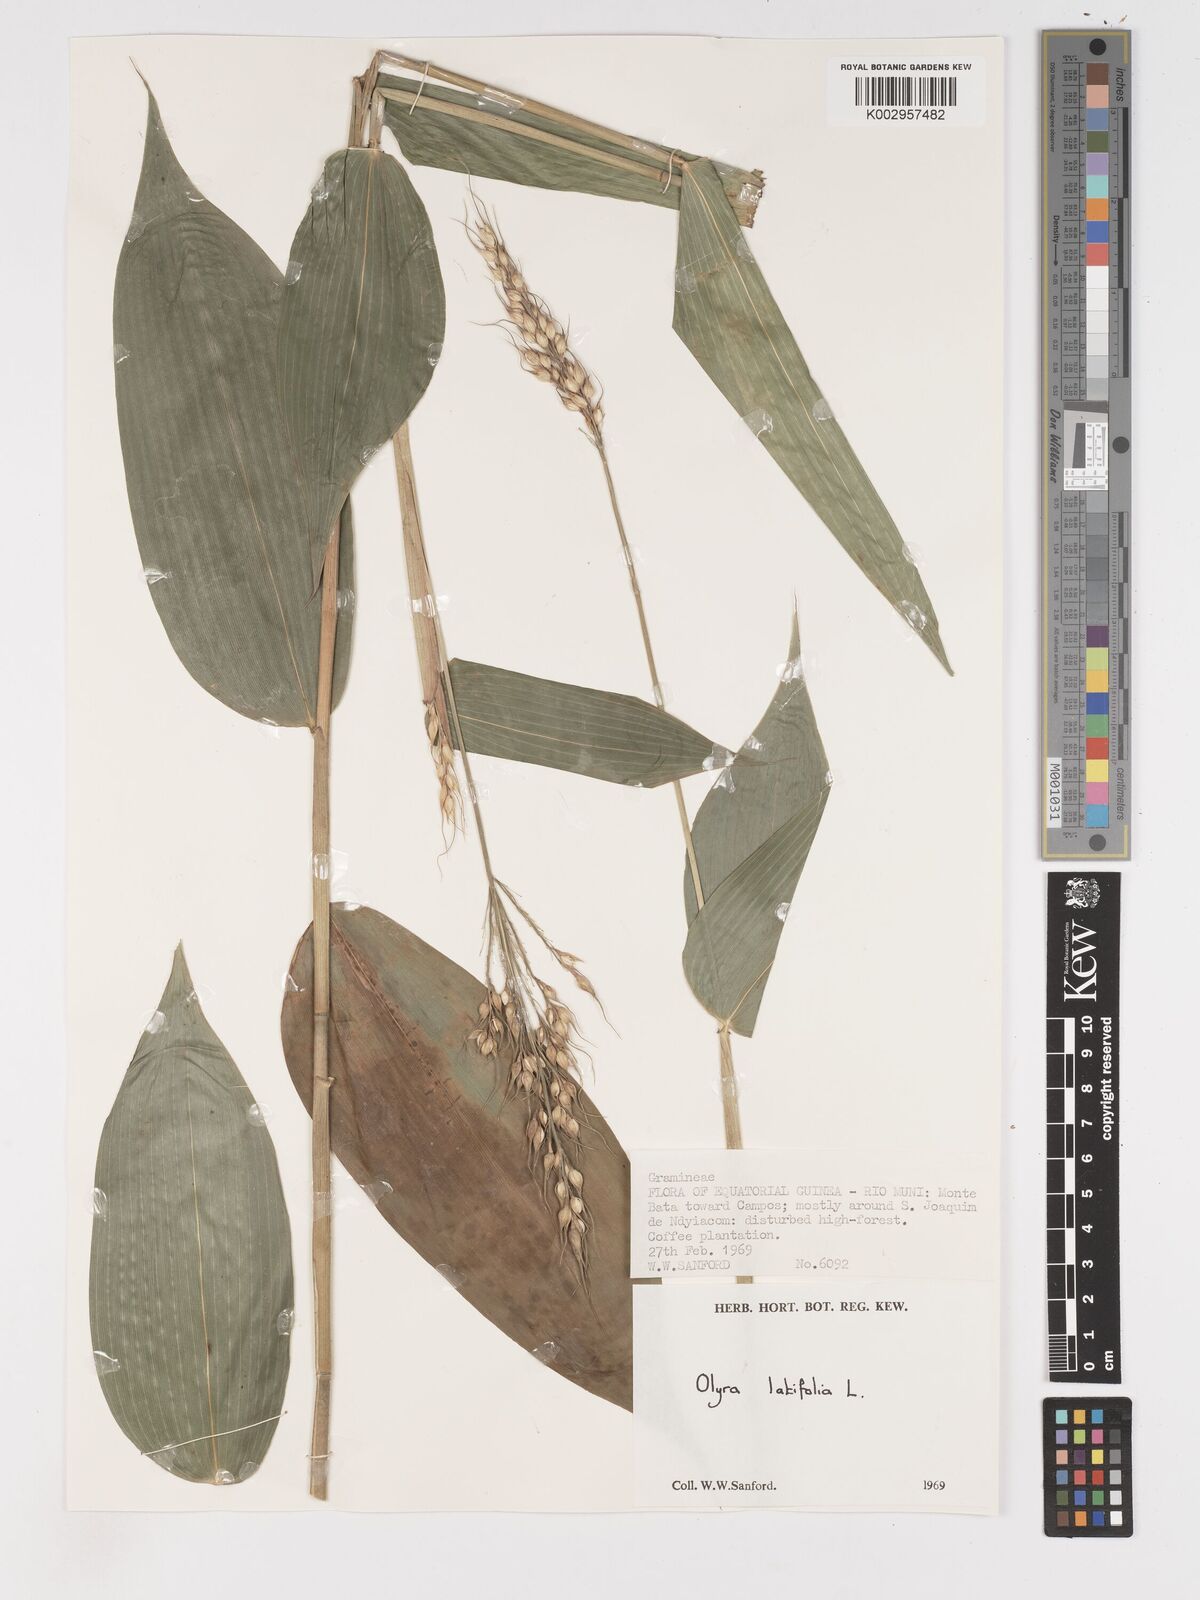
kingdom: Plantae
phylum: Tracheophyta
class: Liliopsida
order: Poales
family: Poaceae
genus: Olyra
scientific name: Olyra latifolia
